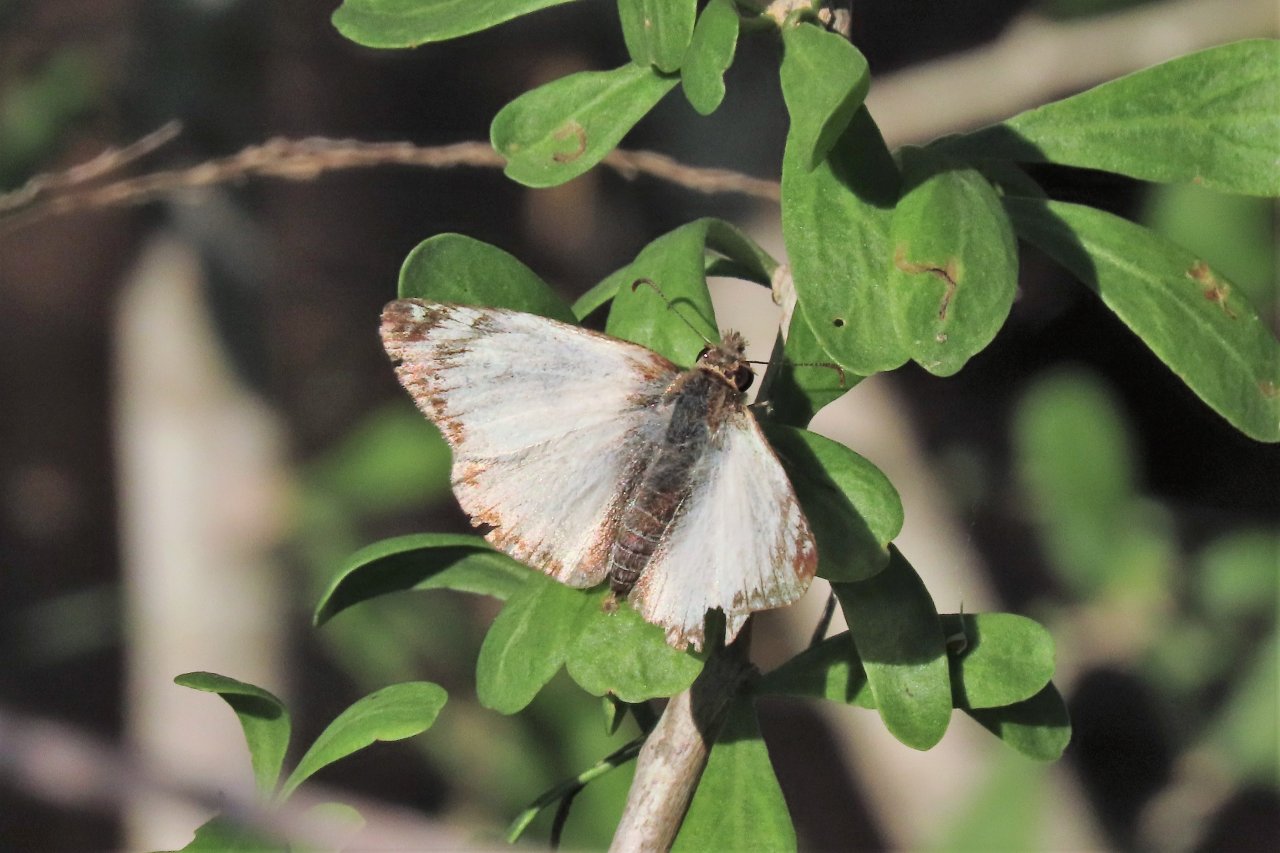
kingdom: Animalia
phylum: Arthropoda
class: Insecta
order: Lepidoptera
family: Hesperiidae
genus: Heliopetes
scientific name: Heliopetes laviana
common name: Laviana White-Skipper
